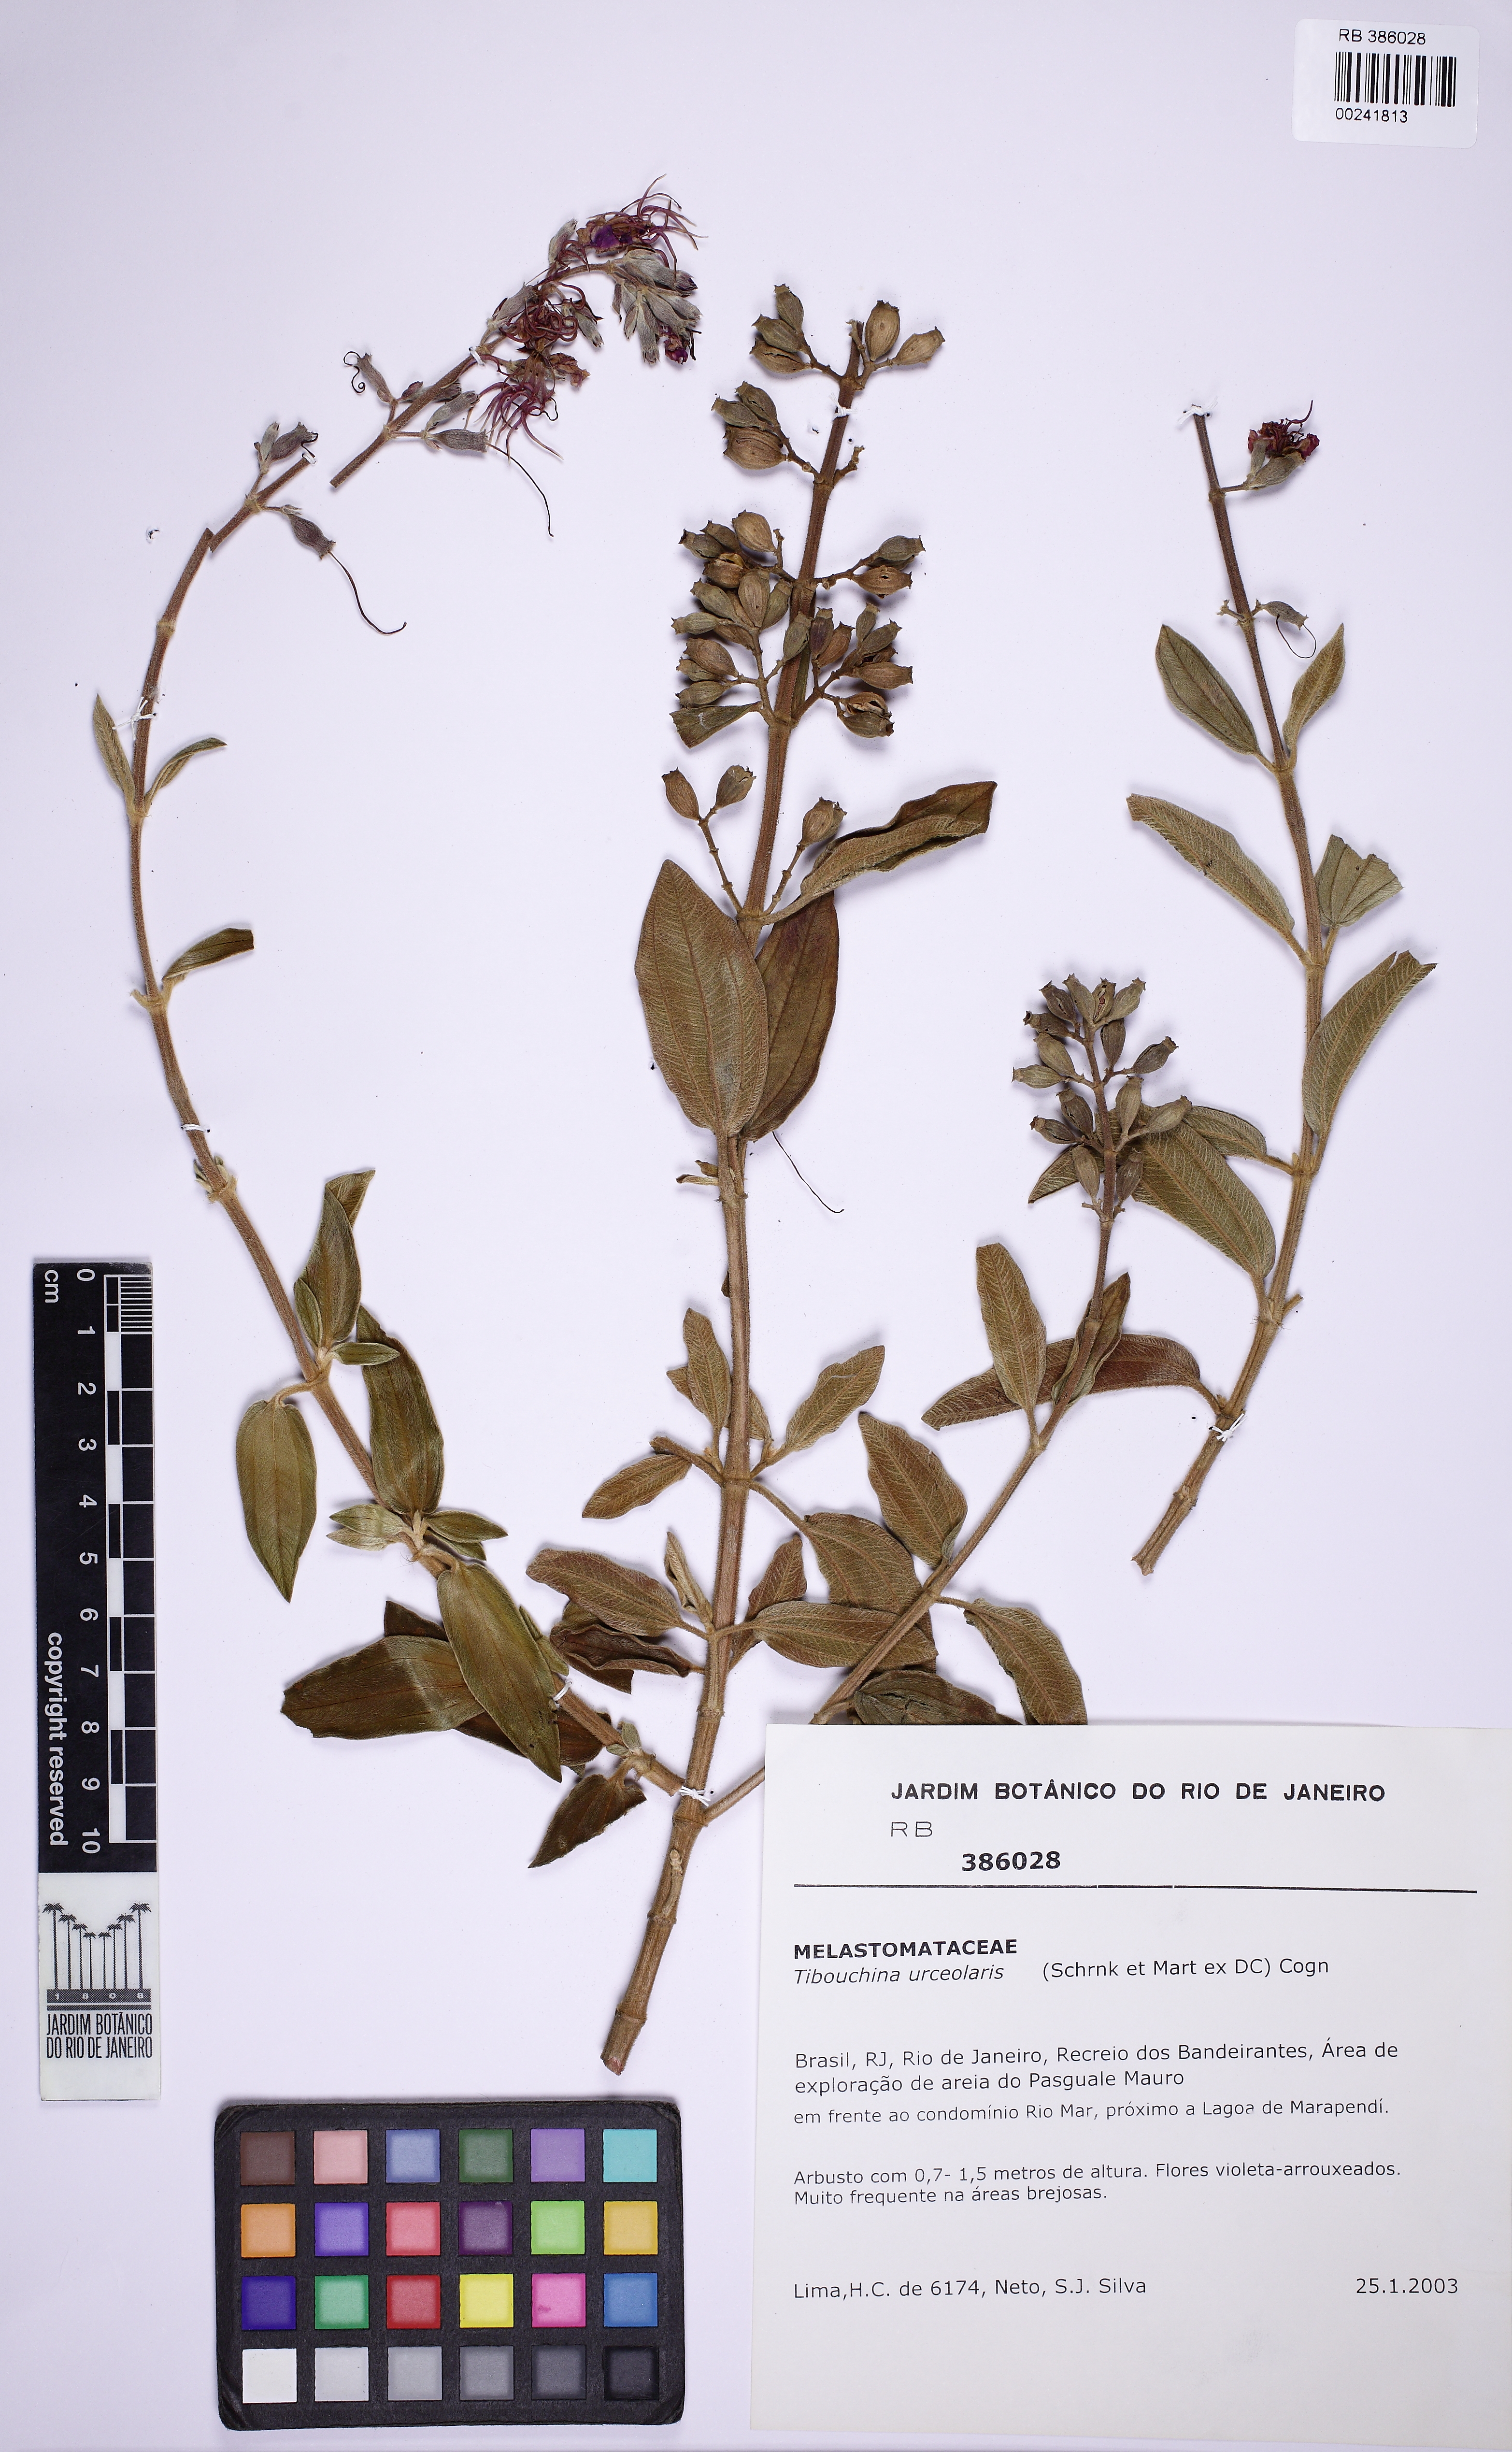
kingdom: Plantae
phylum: Tracheophyta
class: Magnoliopsida
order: Myrtales
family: Melastomataceae
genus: Pleroma
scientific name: Pleroma urceolare
